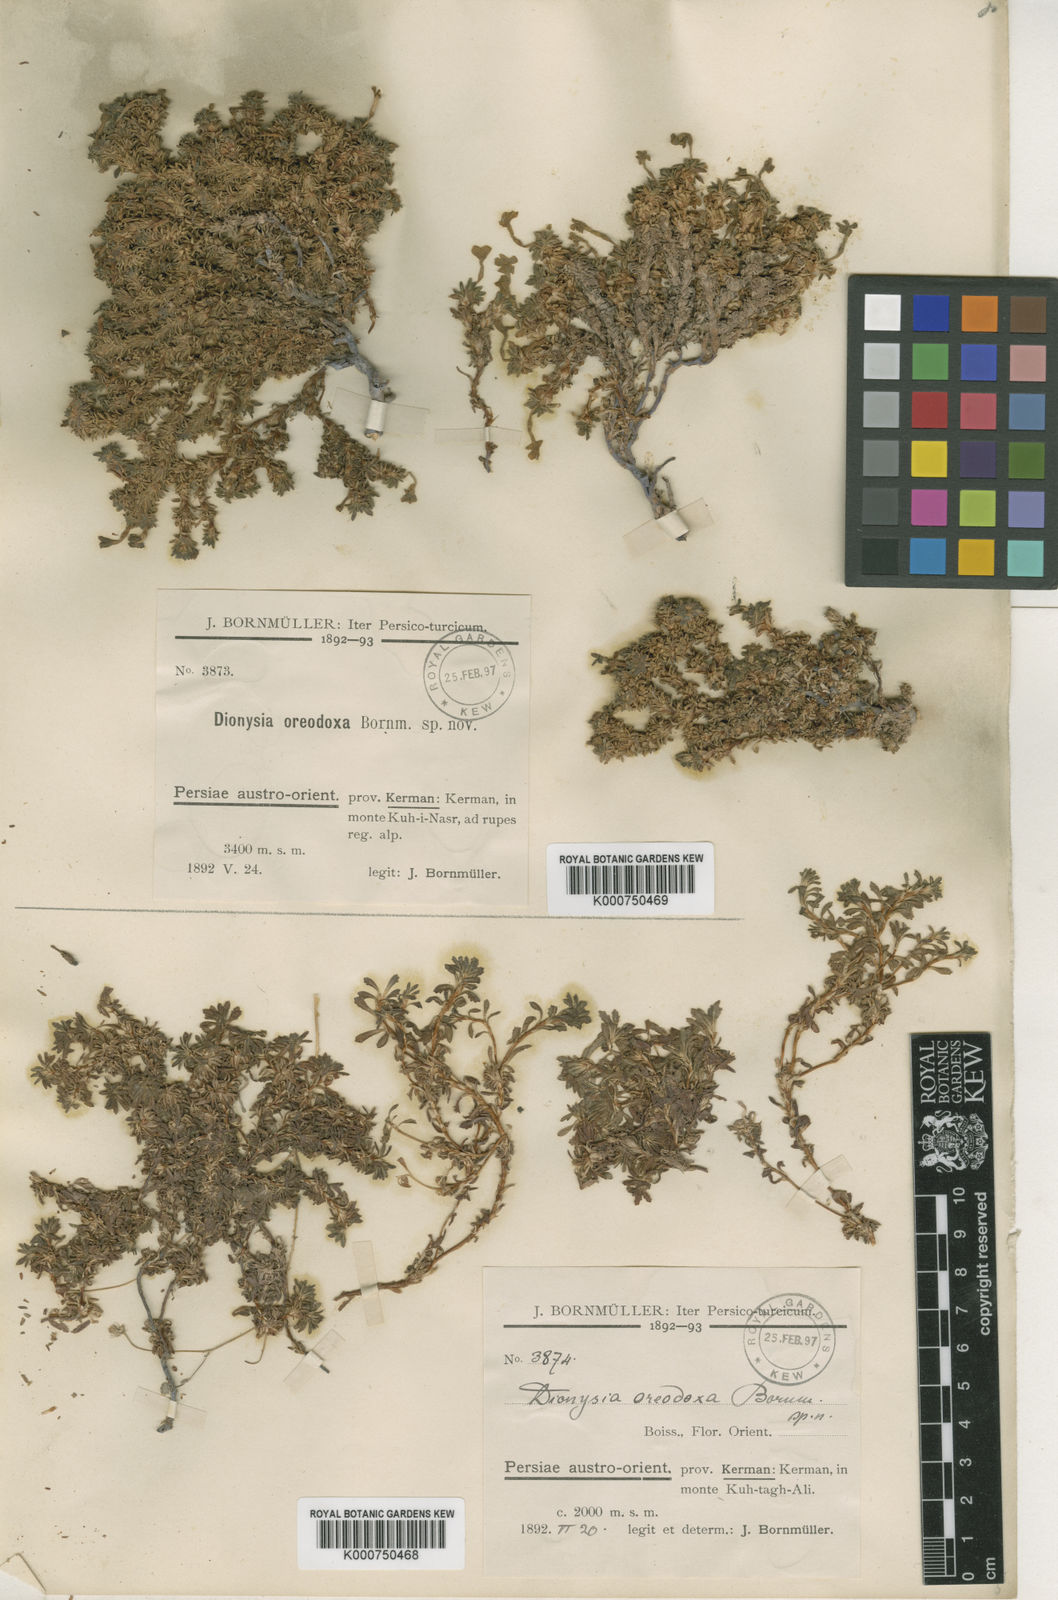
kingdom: Plantae
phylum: Tracheophyta
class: Magnoliopsida
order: Ericales
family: Primulaceae
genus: Dionysia
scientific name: Dionysia oreodoxa
